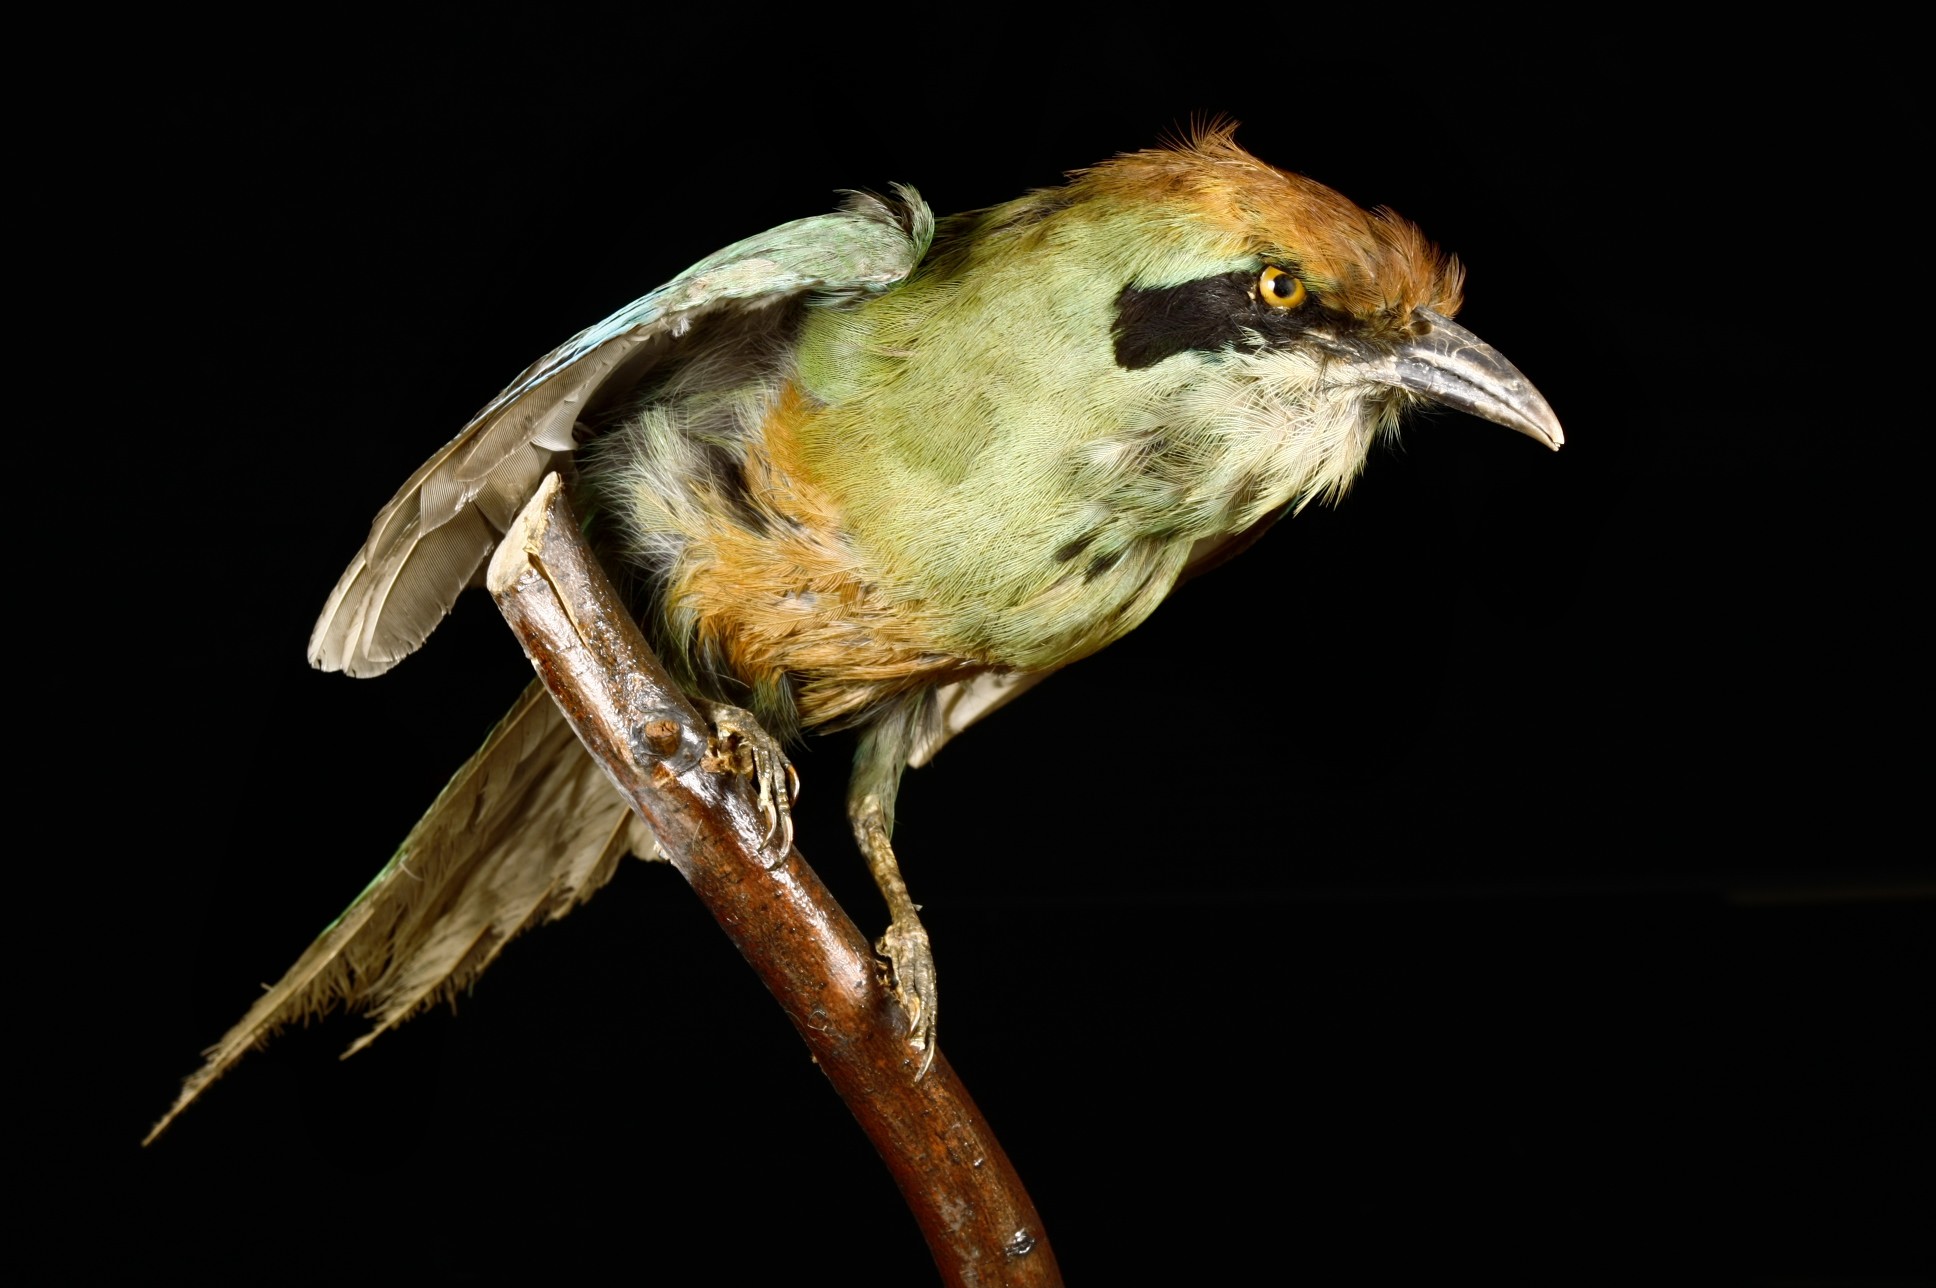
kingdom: Animalia
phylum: Chordata
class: Aves
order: Coraciiformes
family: Momotidae
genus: Baryphthengus
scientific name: Baryphthengus ruficapillus
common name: Rufous-capped motmot
